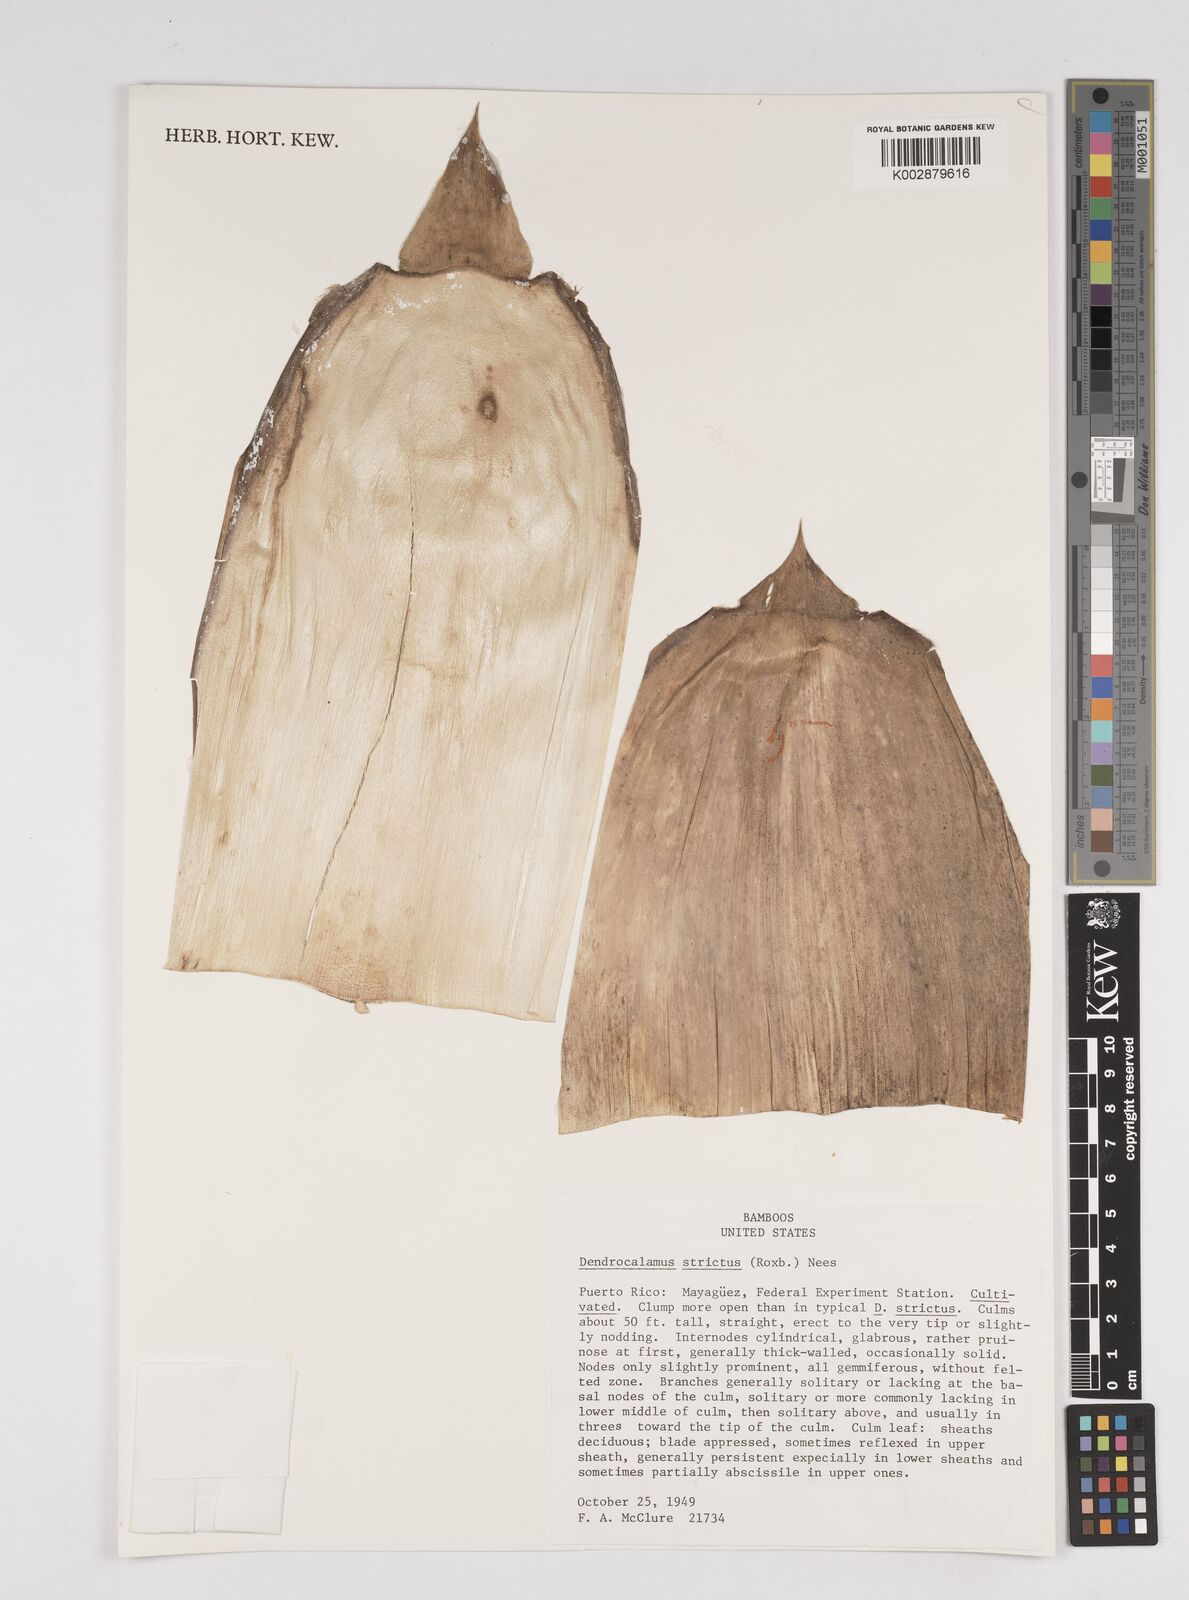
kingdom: Plantae
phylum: Tracheophyta
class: Liliopsida
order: Poales
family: Poaceae
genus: Dendrocalamus
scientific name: Dendrocalamus strictus
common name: Male bamboo
